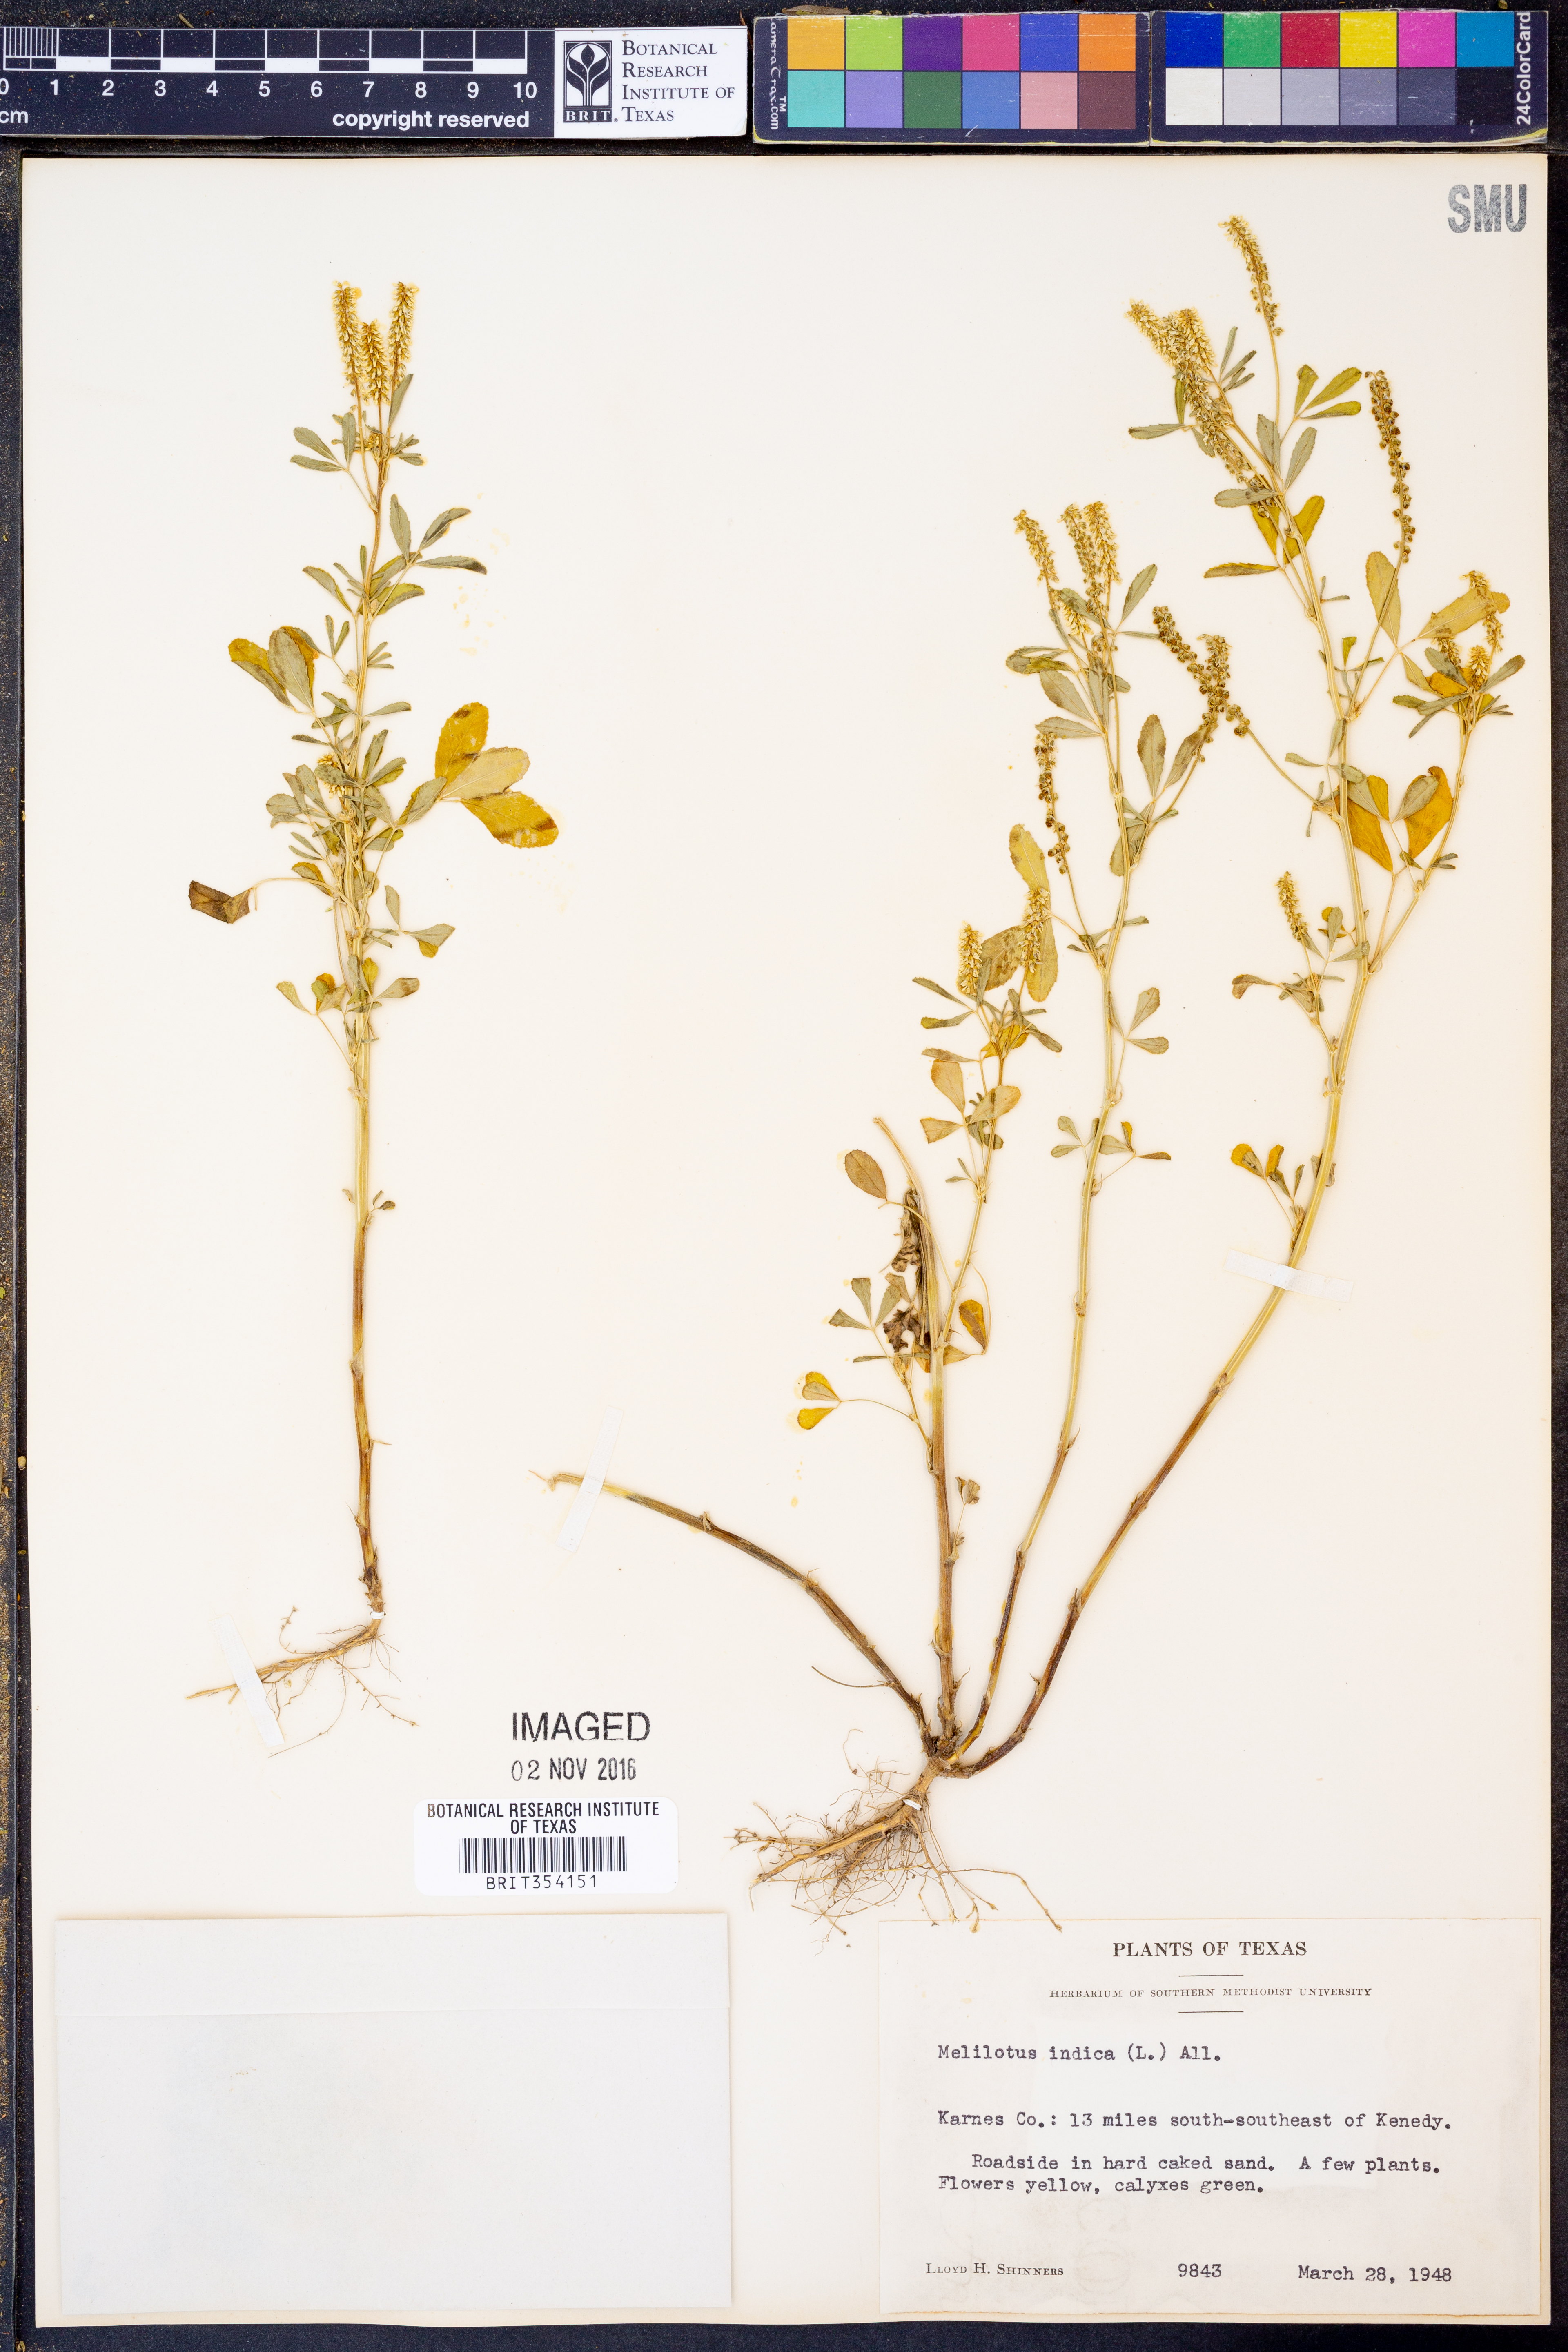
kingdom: Plantae
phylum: Tracheophyta
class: Magnoliopsida
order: Fabales
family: Fabaceae
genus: Melilotus
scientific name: Melilotus indicus
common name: Small melilot
